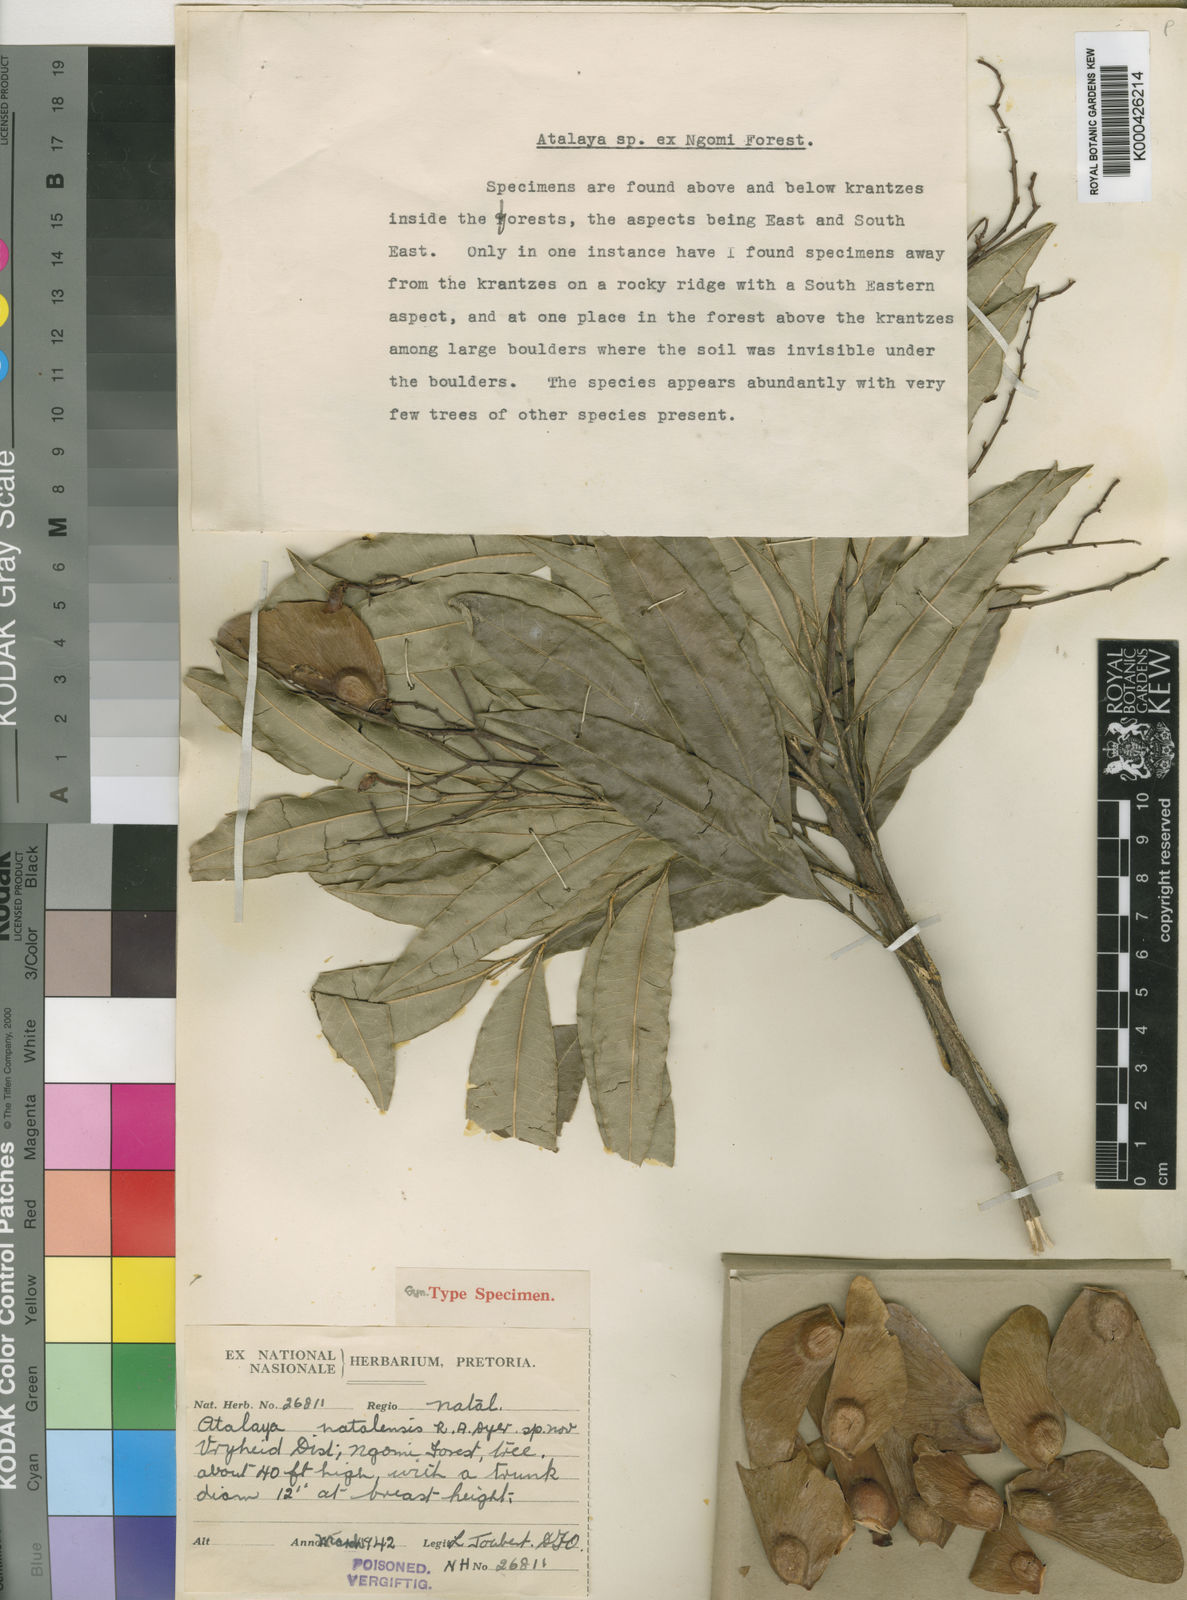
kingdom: Plantae
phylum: Tracheophyta
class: Magnoliopsida
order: Sapindales
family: Sapindaceae
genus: Atalaya
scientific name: Atalaya natalensis
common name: Forest krantz ash
